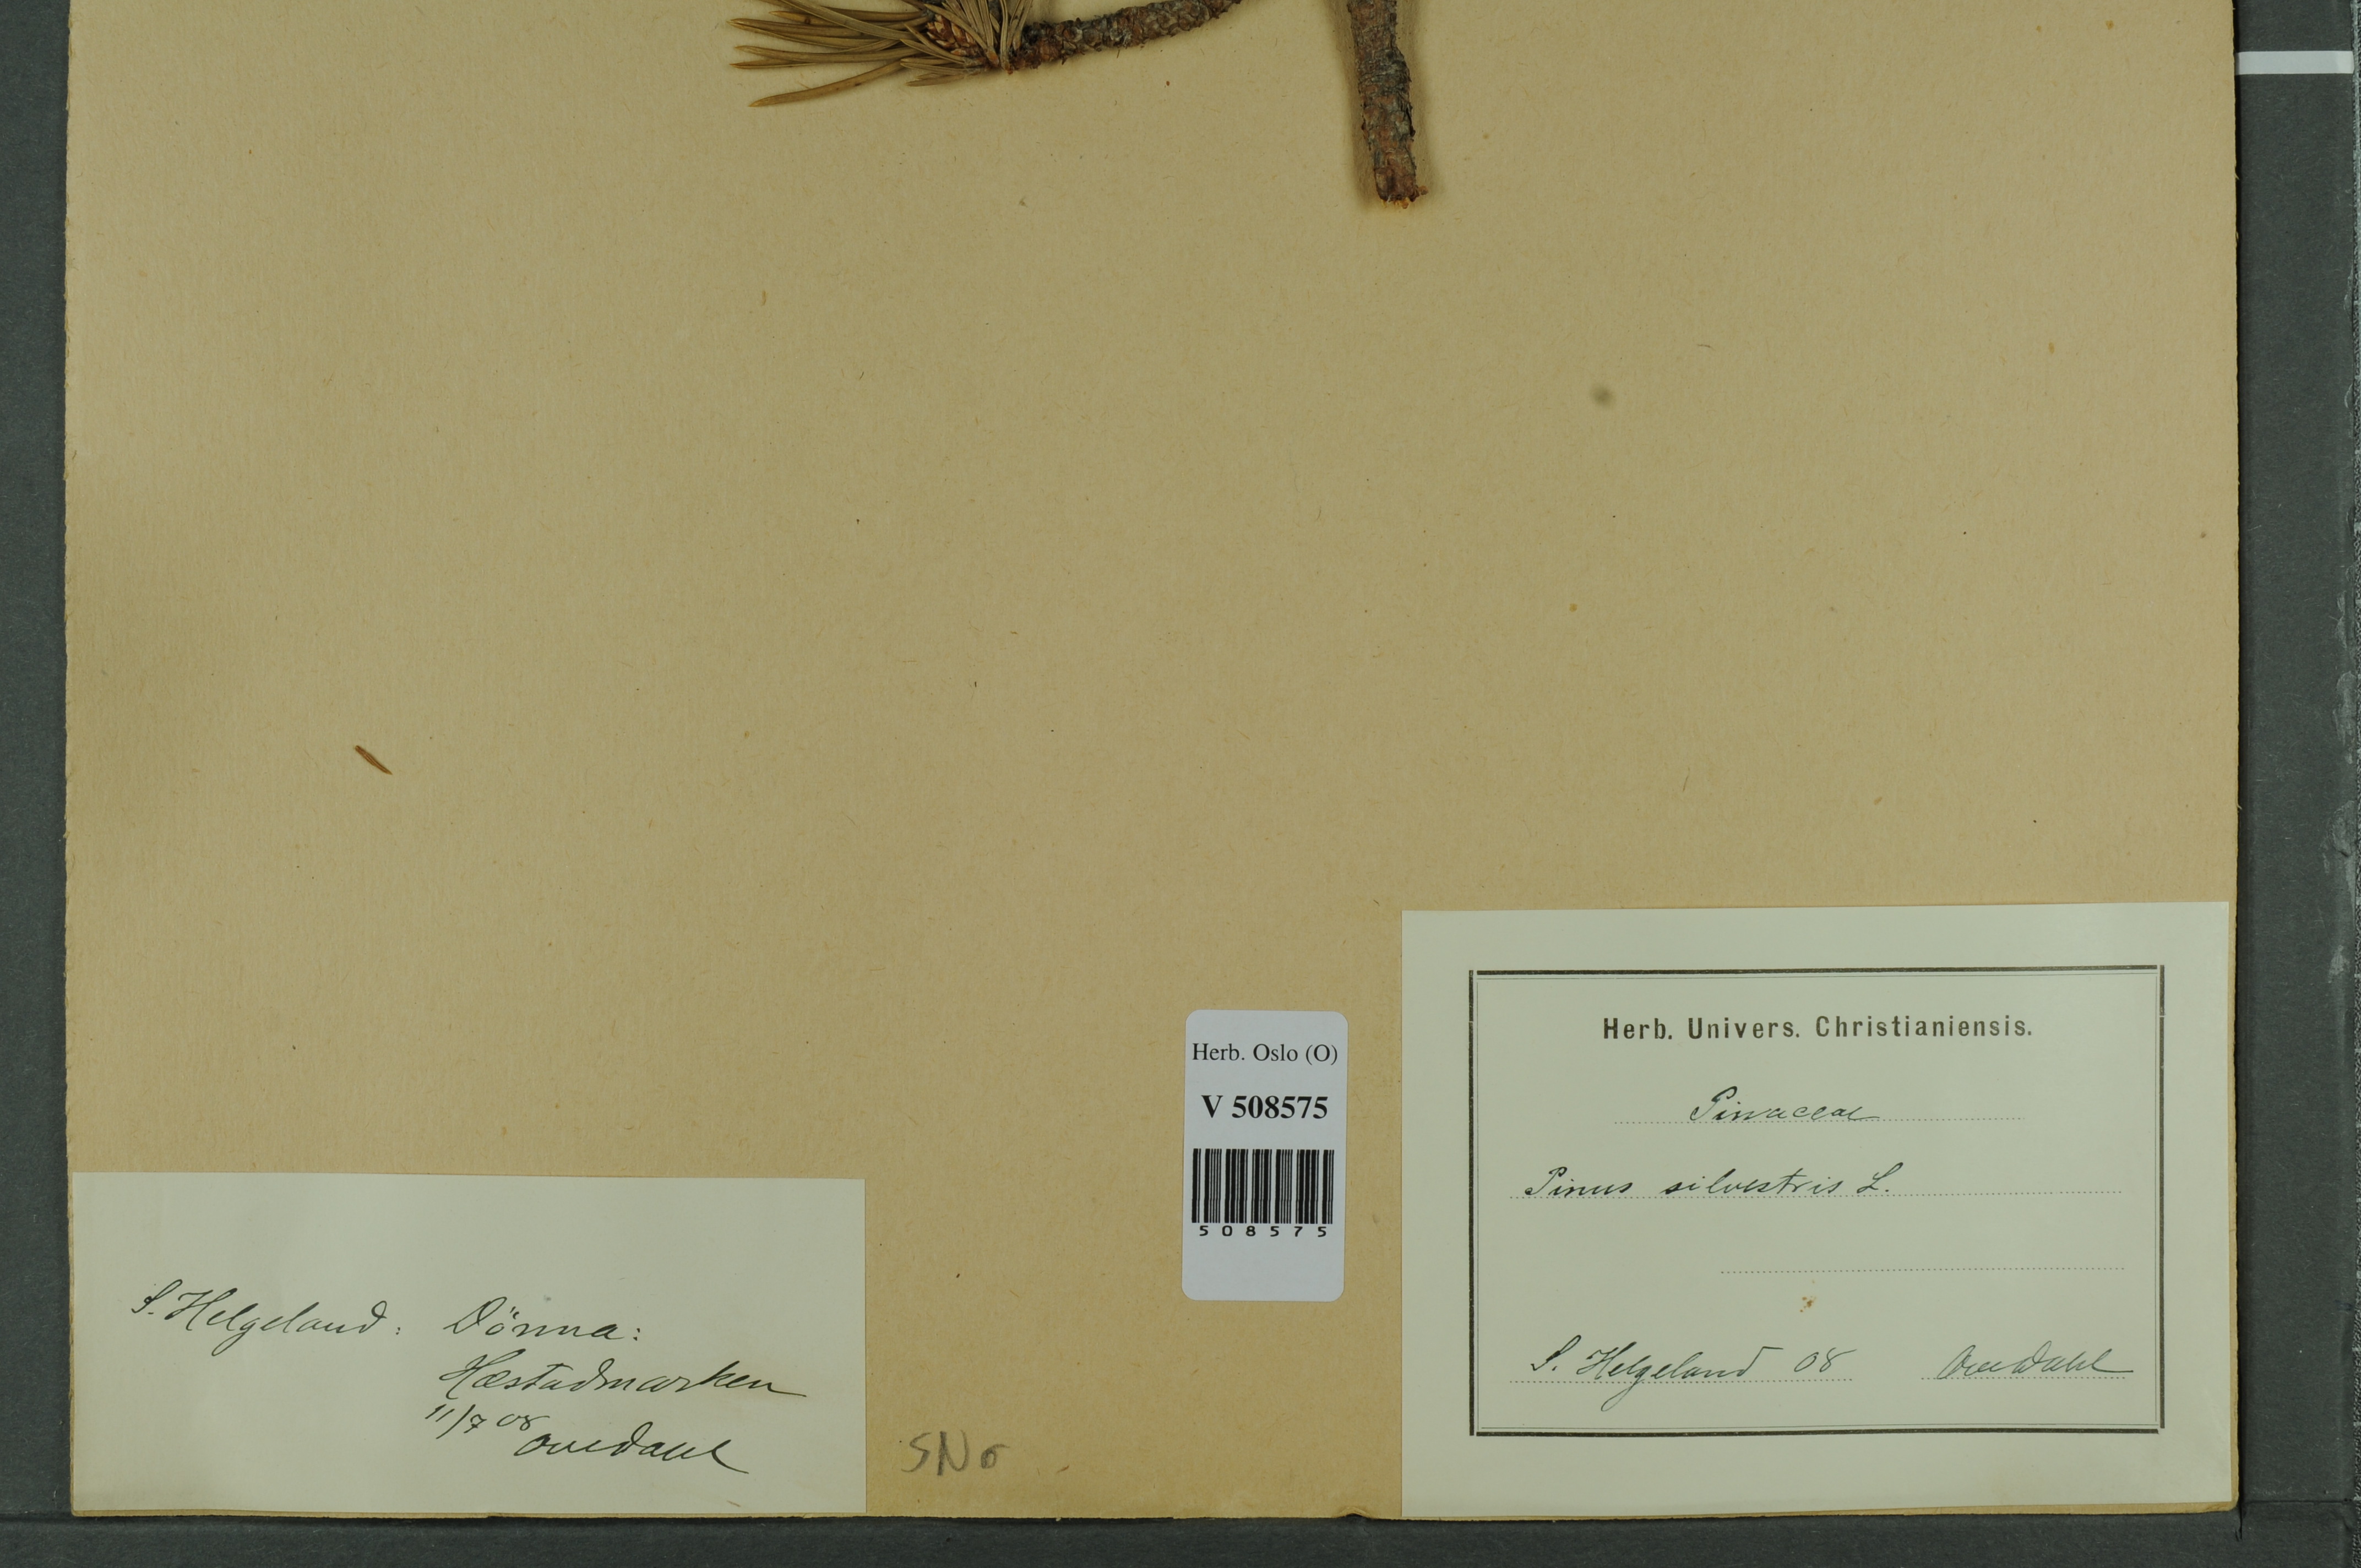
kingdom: Plantae
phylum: Tracheophyta
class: Pinopsida
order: Pinales
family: Pinaceae
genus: Pinus
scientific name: Pinus sylvestris
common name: Scots pine
